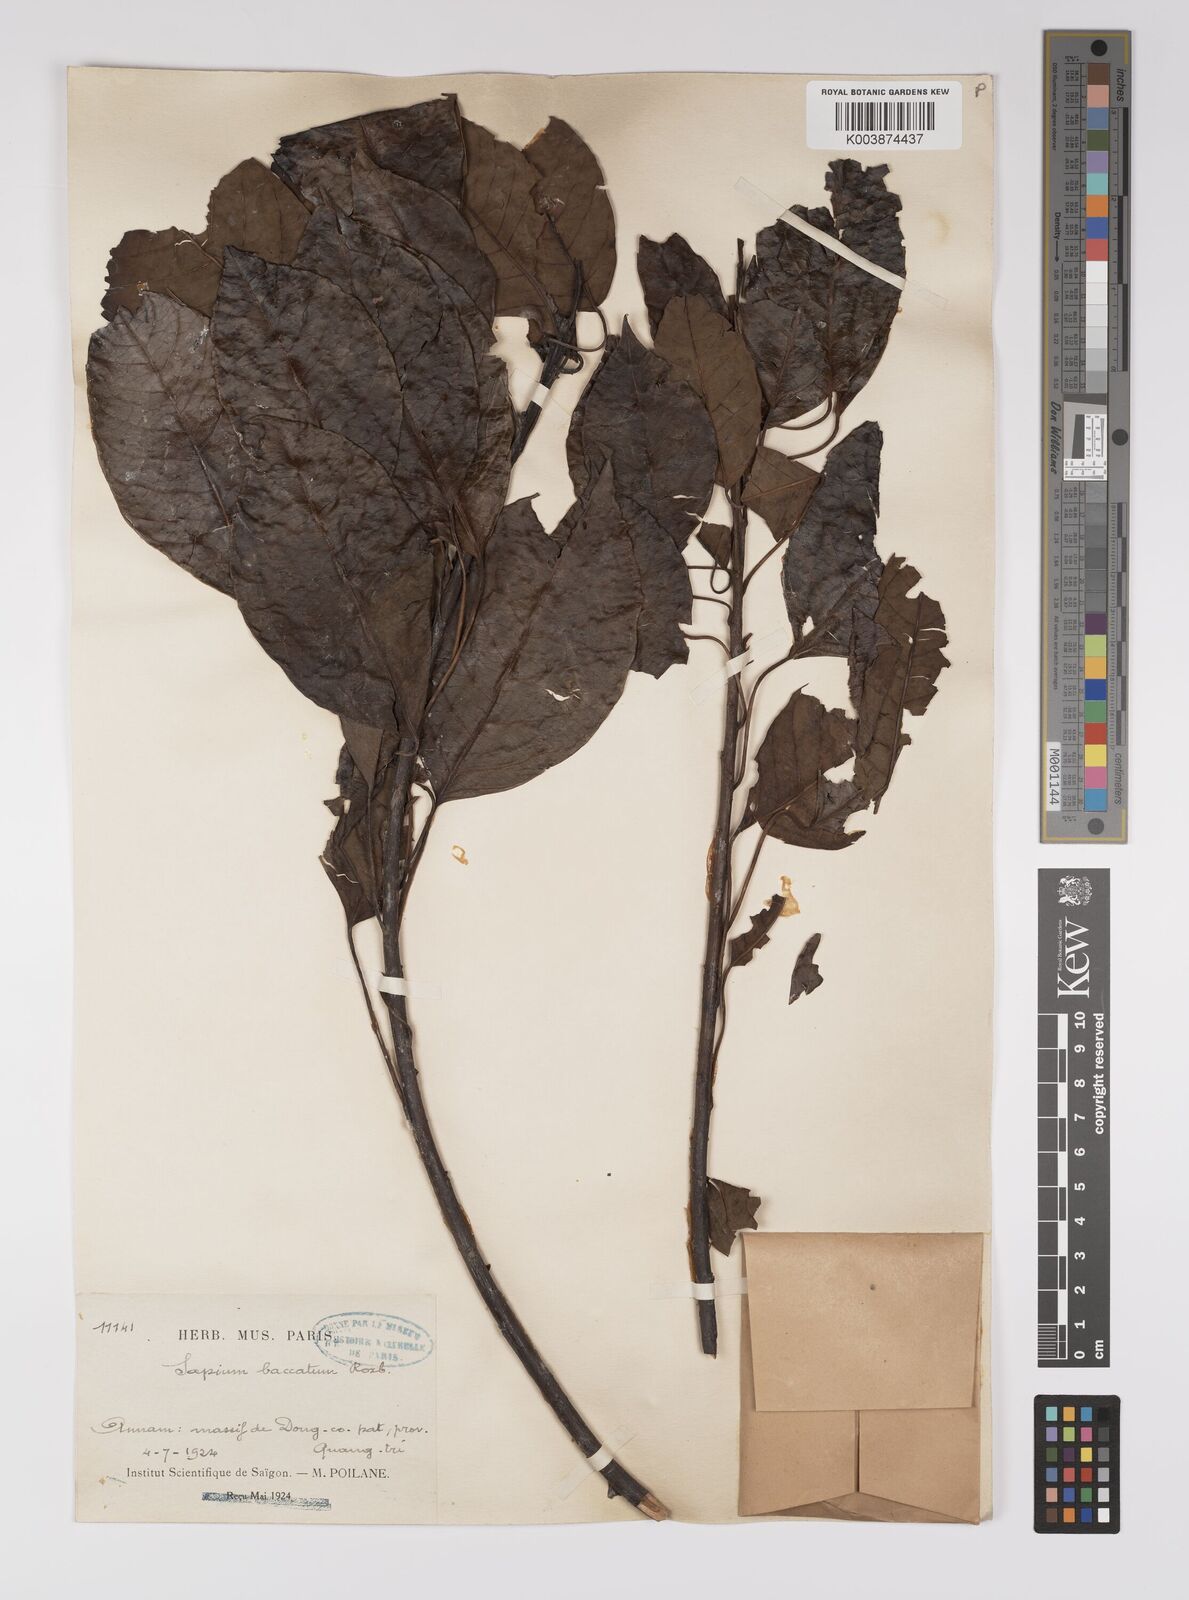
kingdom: Plantae
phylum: Tracheophyta
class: Magnoliopsida
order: Malpighiales
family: Euphorbiaceae
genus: Balakata
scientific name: Balakata baccata
